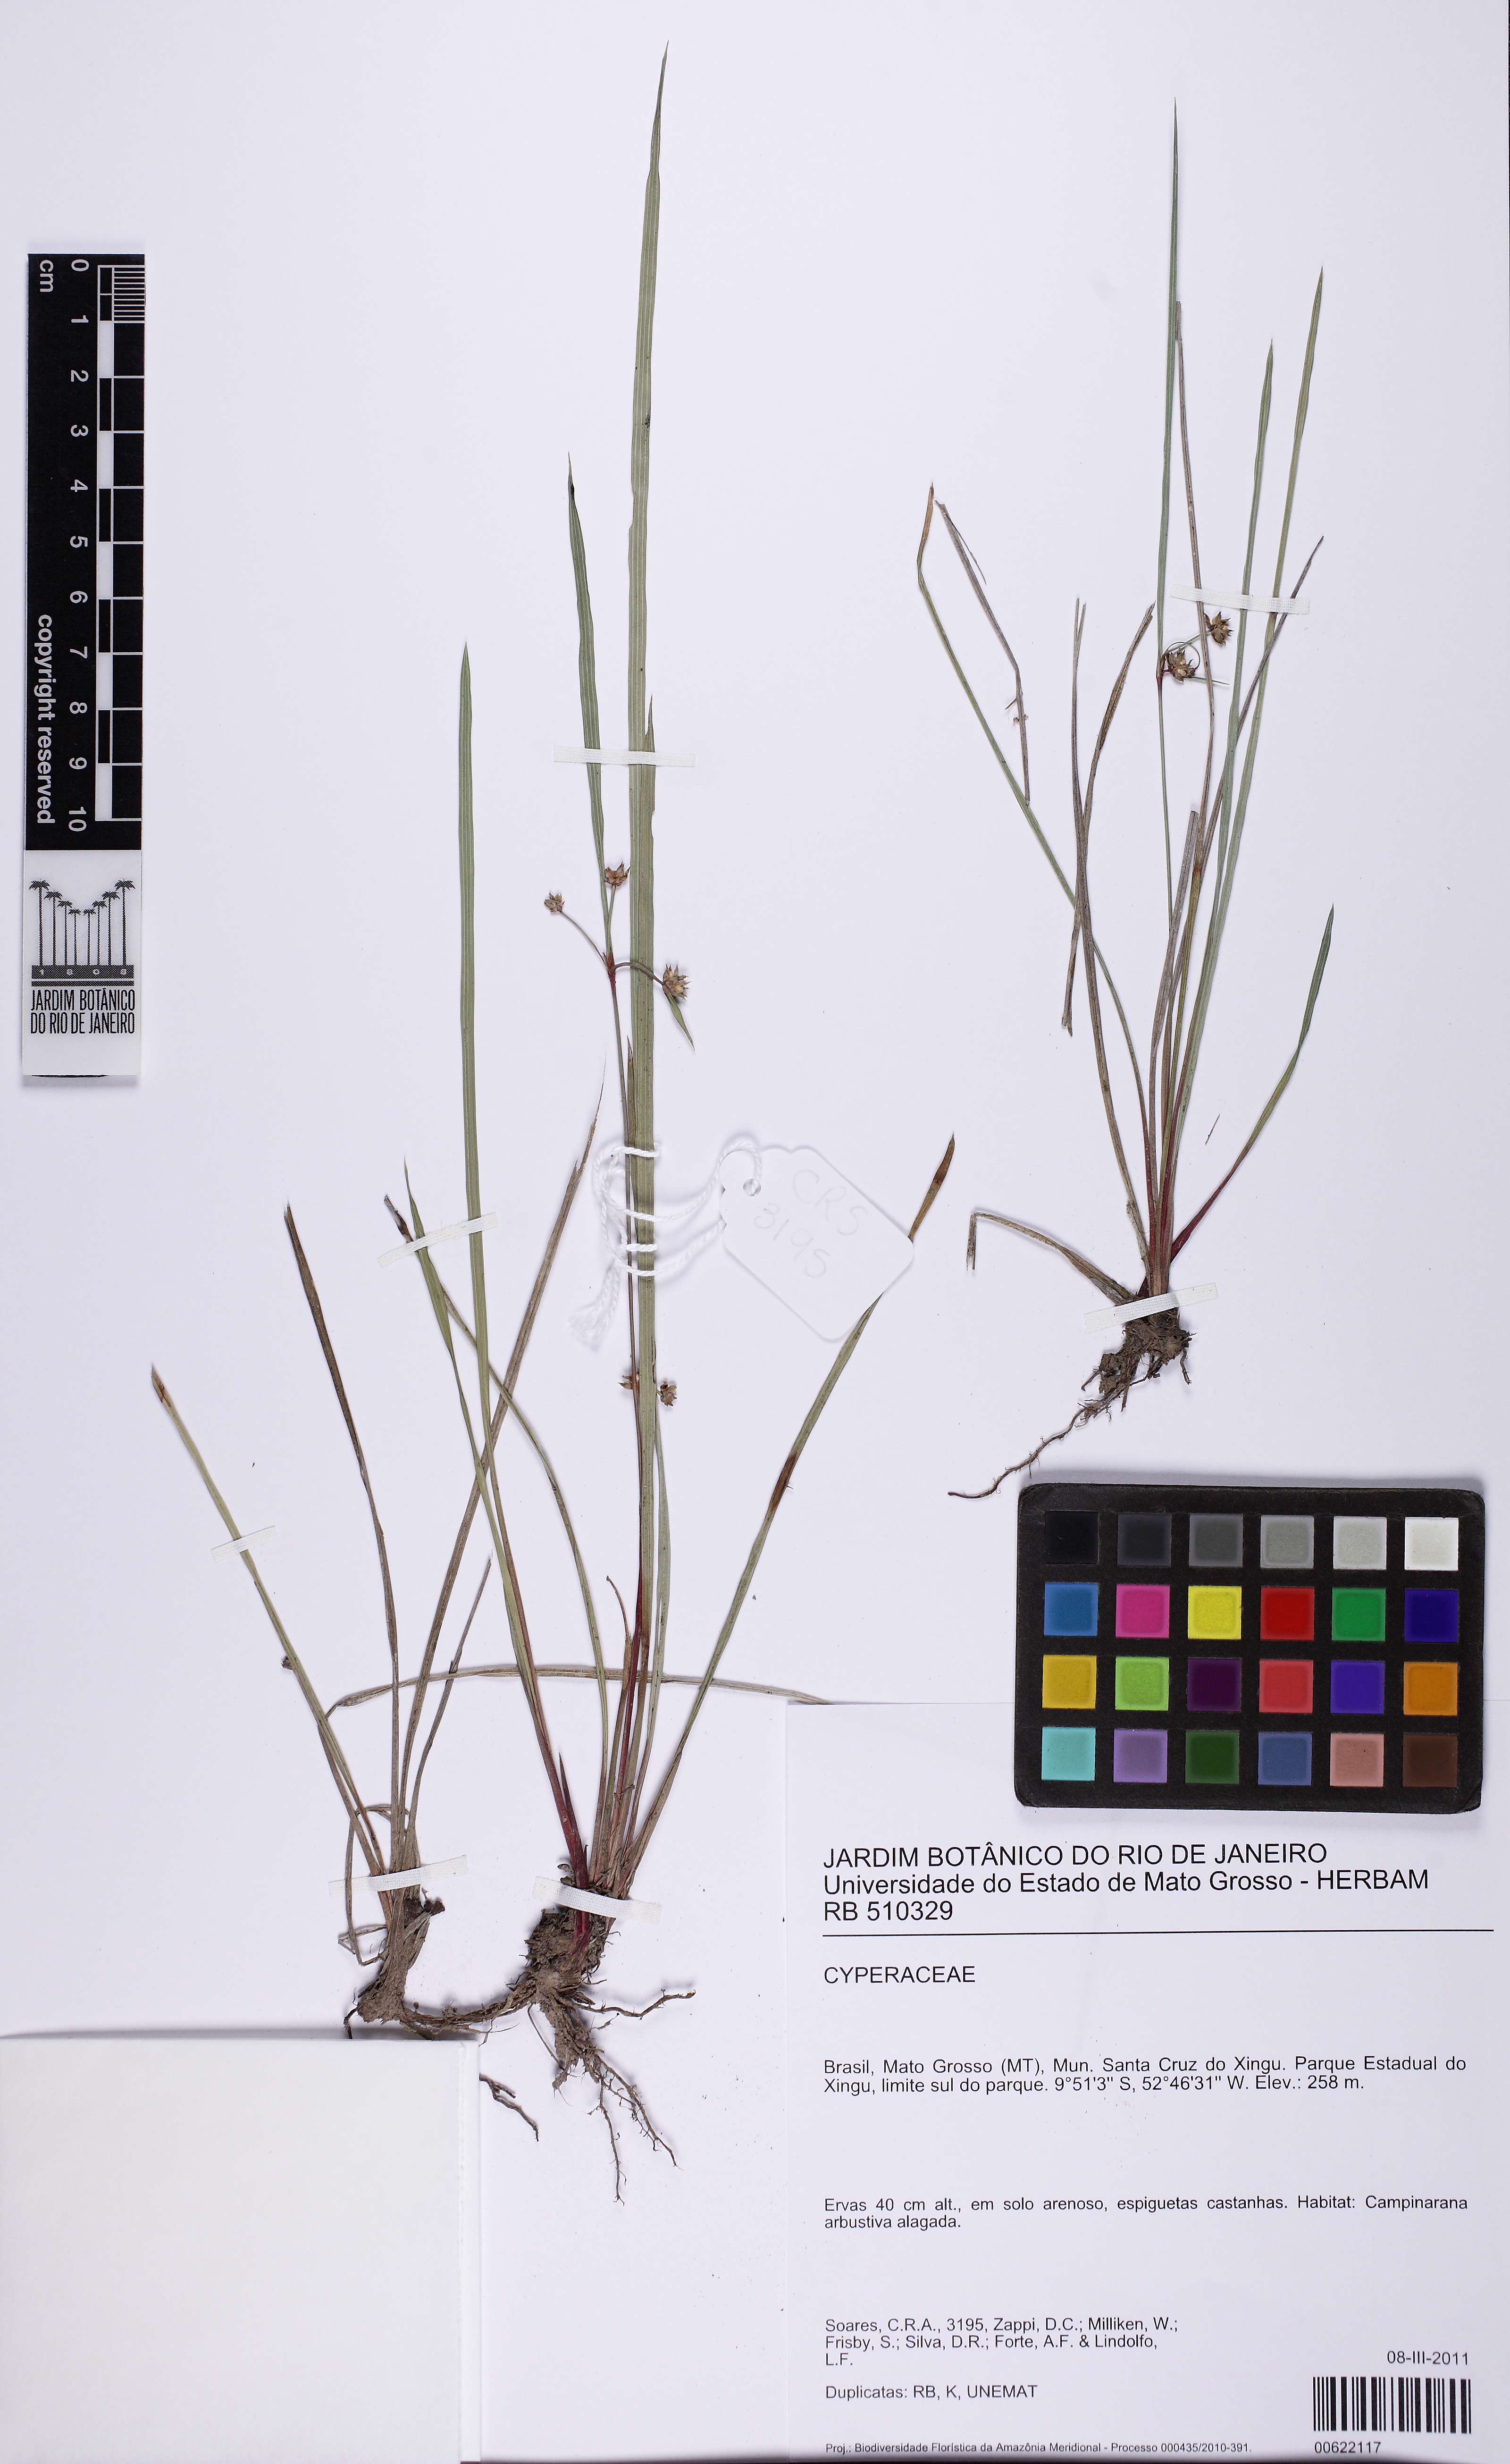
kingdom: Plantae
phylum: Tracheophyta
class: Liliopsida
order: Poales
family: Cyperaceae
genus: Calyptrocarya
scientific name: Calyptrocarya
